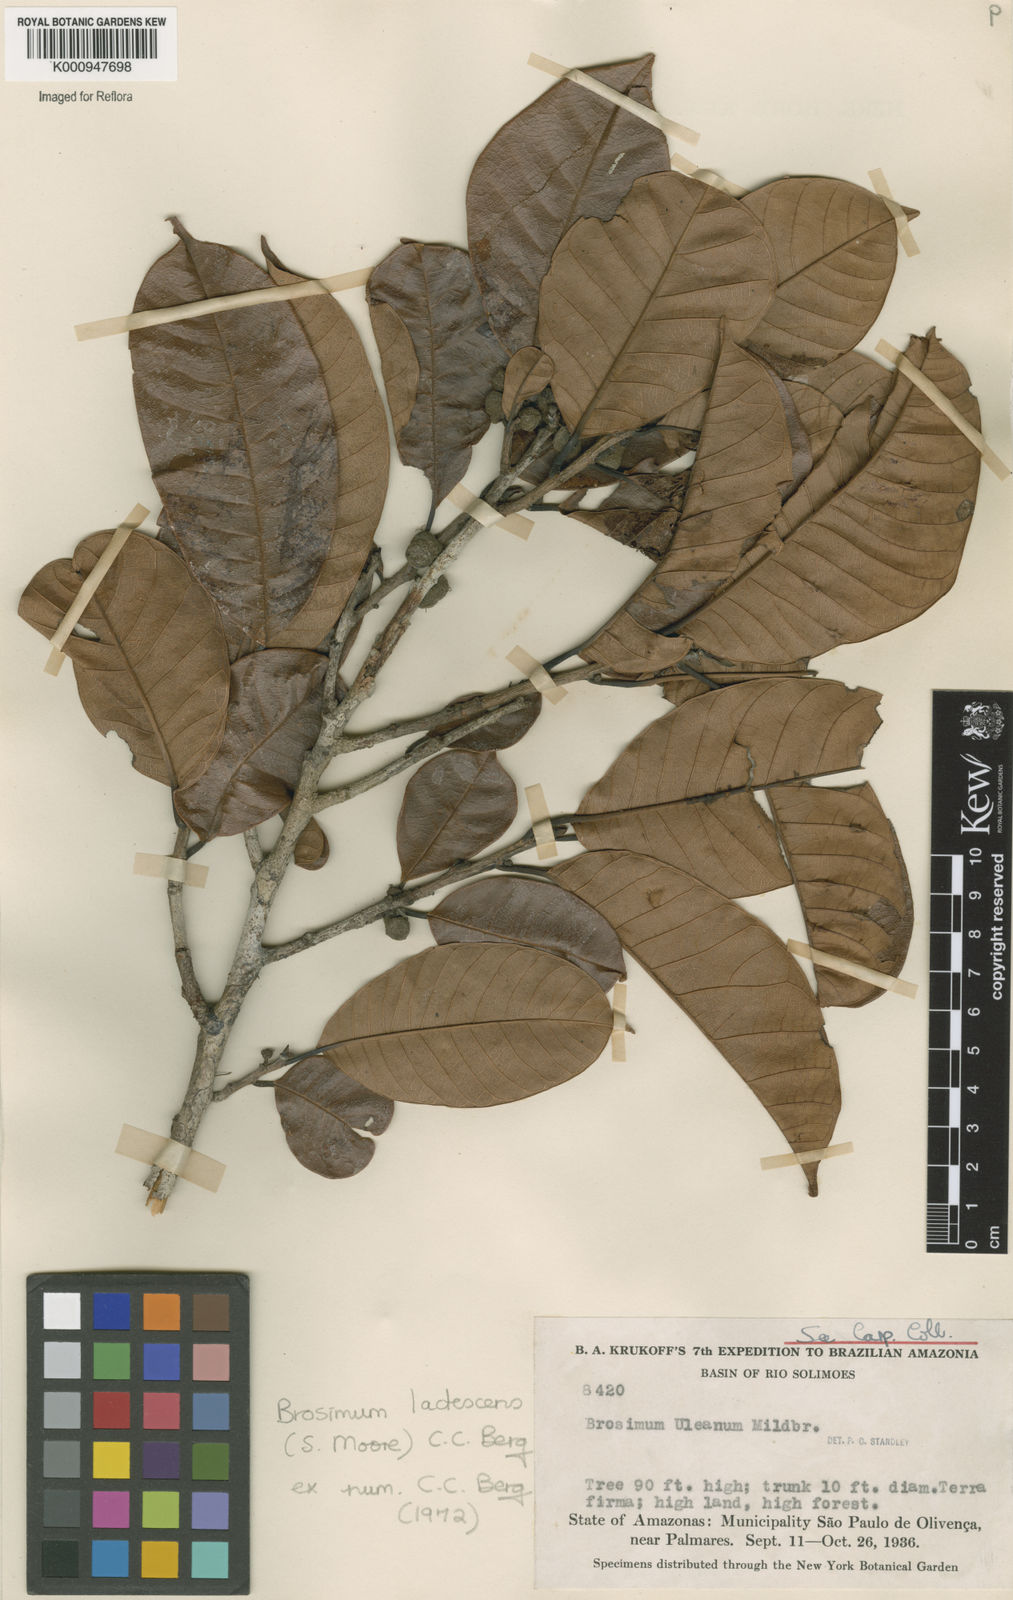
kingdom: Plantae
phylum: Tracheophyta
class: Magnoliopsida
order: Rosales
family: Moraceae
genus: Brosimum
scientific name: Brosimum lactescens
